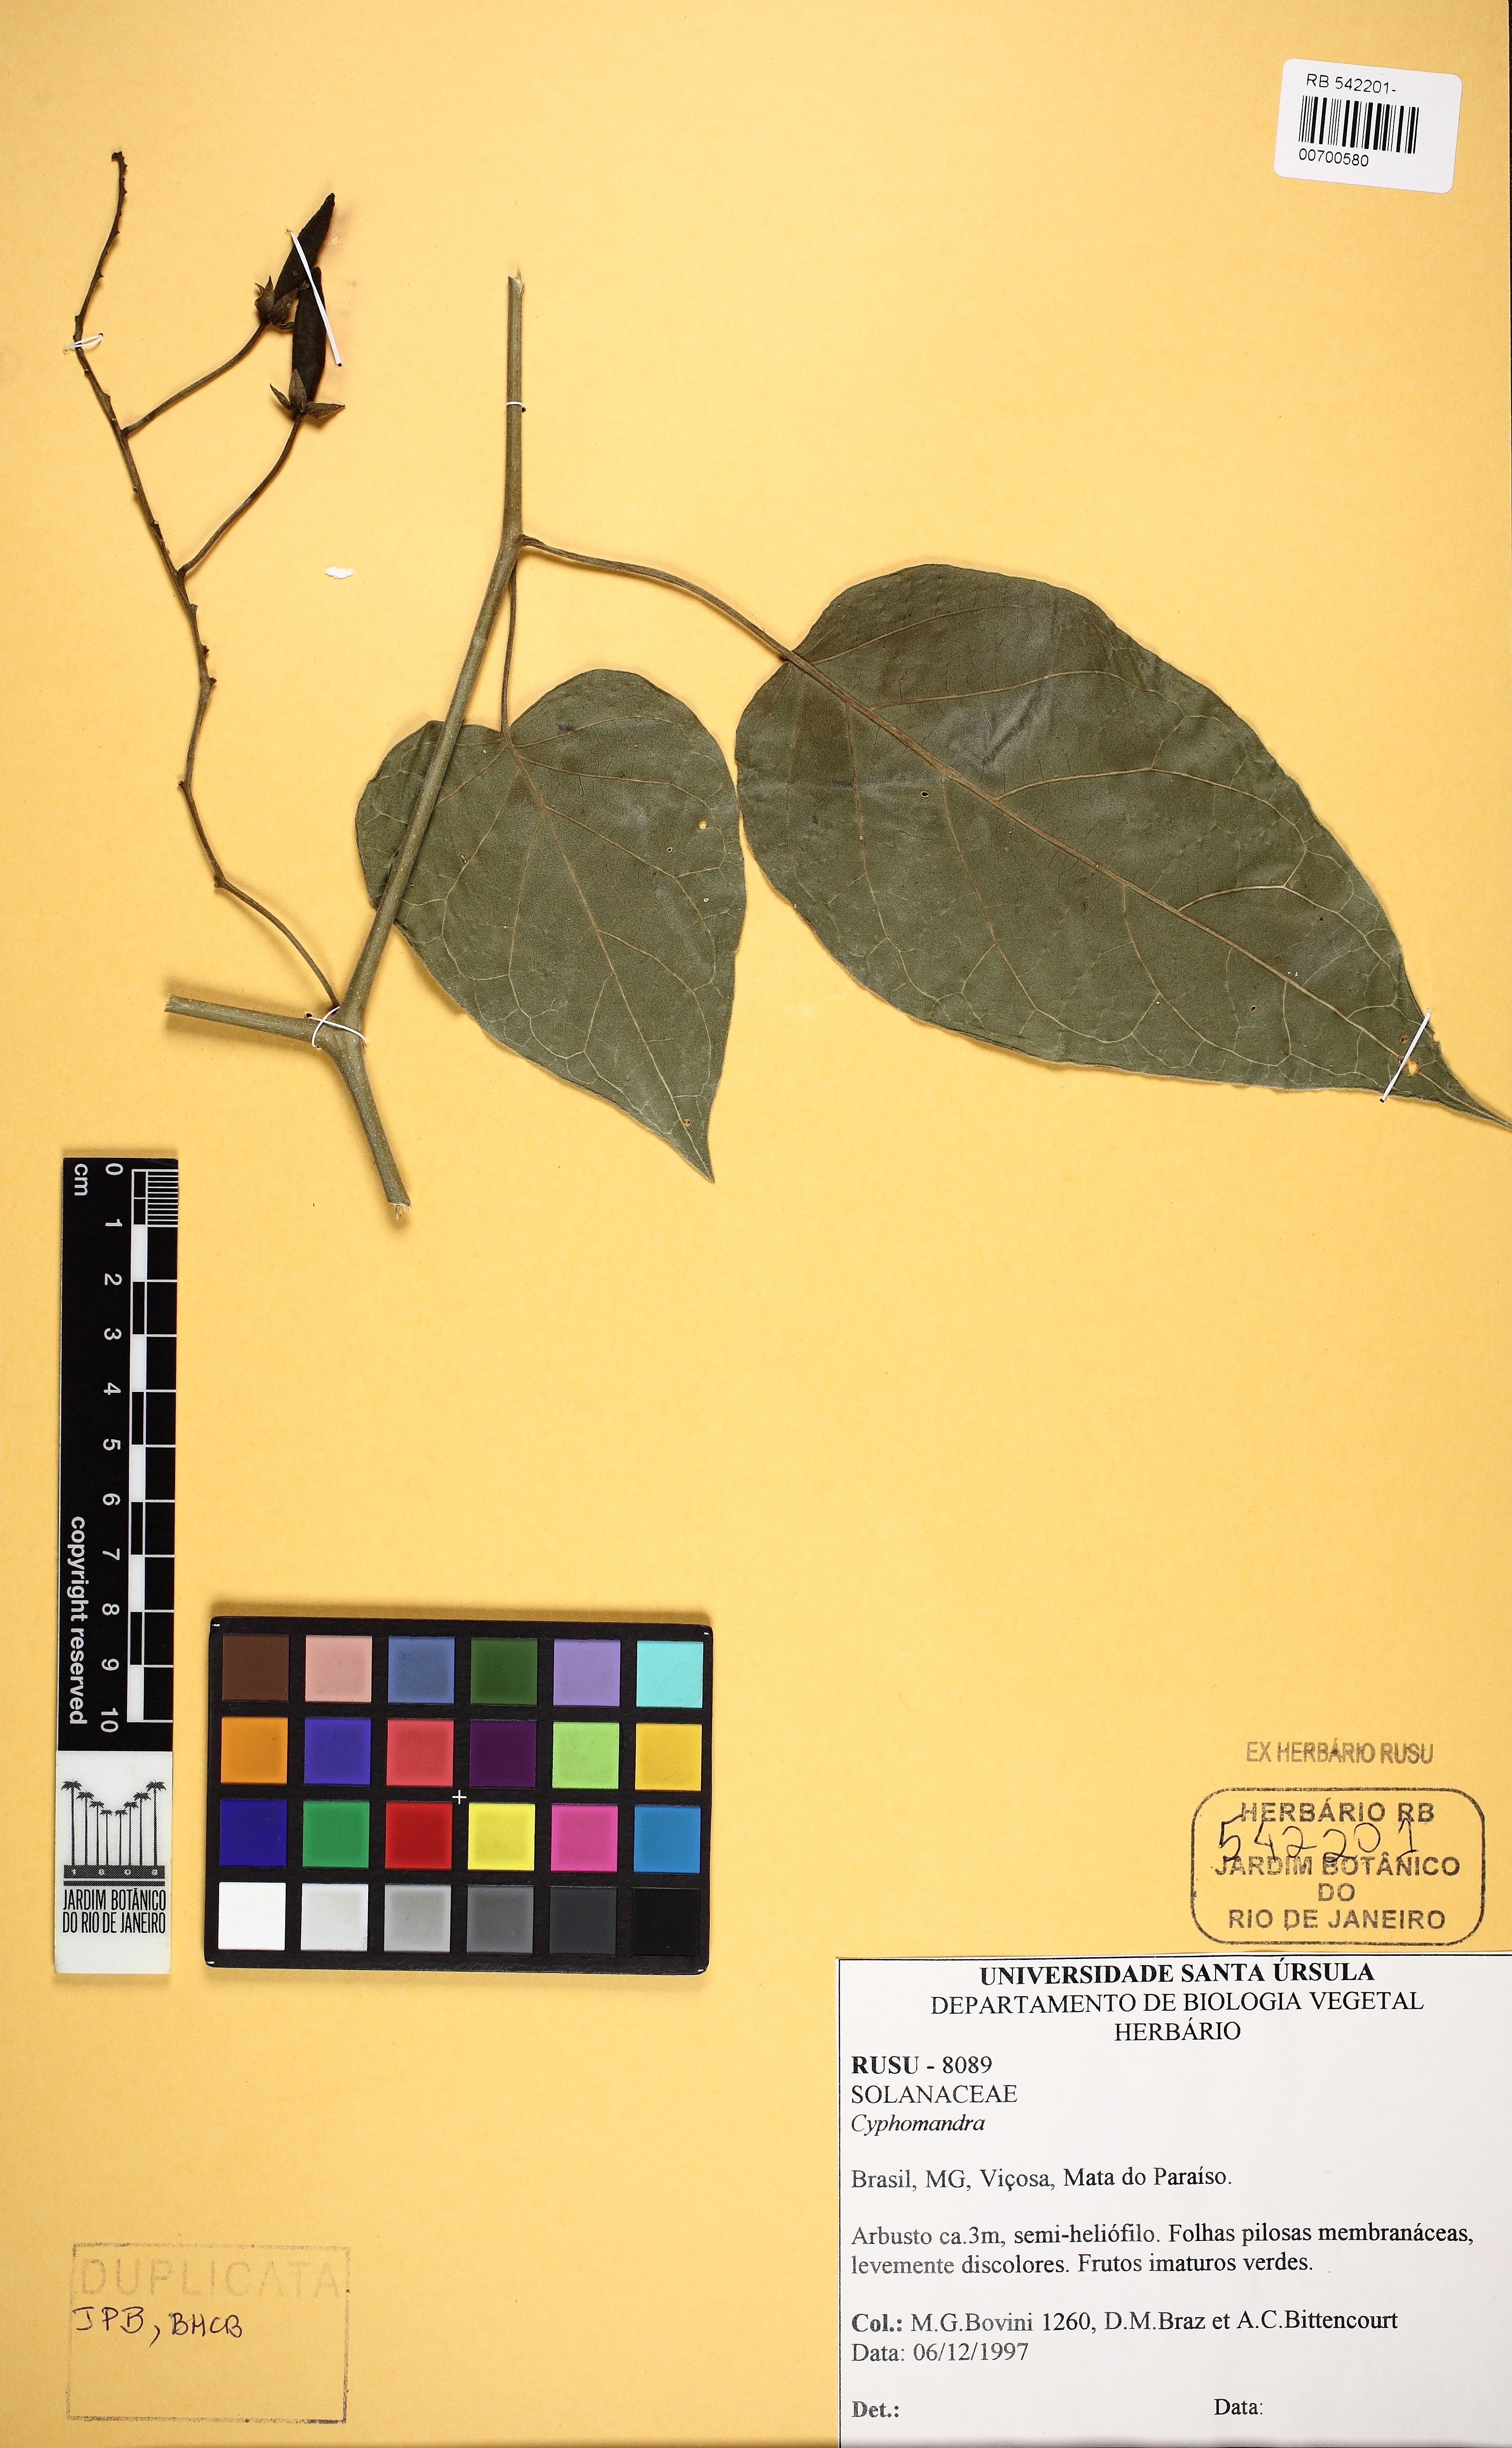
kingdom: Plantae
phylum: Tracheophyta
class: Magnoliopsida
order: Solanales
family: Solanaceae
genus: Solanum
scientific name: Solanum
